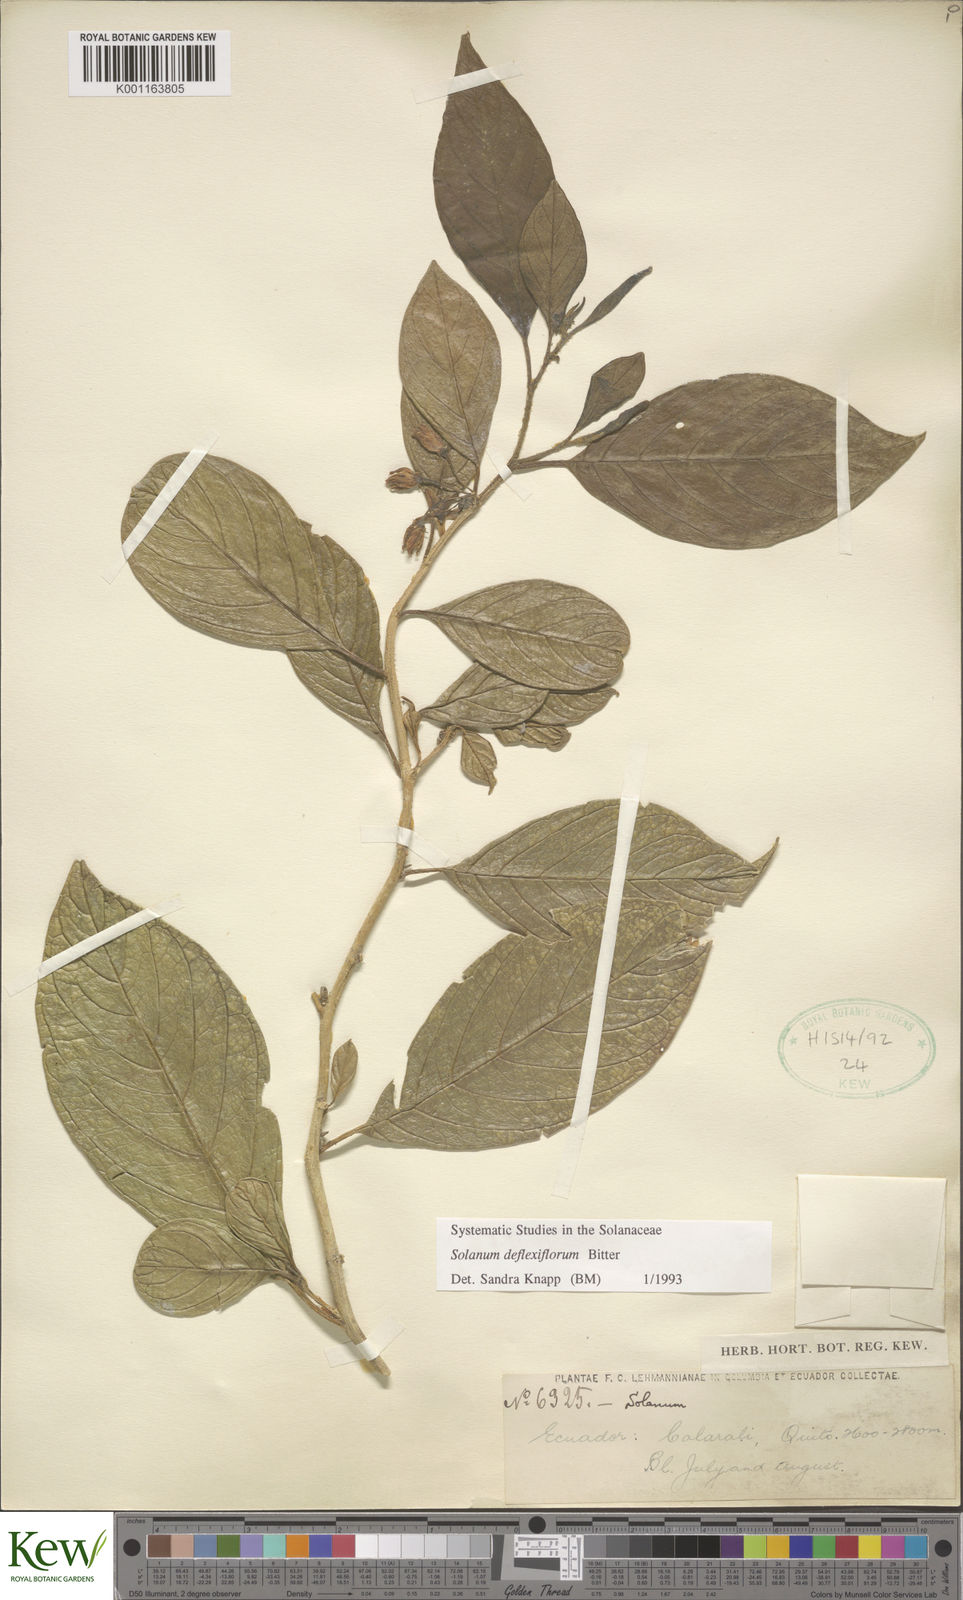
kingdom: Plantae
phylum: Tracheophyta
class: Magnoliopsida
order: Solanales
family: Solanaceae
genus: Solanum
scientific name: Solanum deflexiflorum
